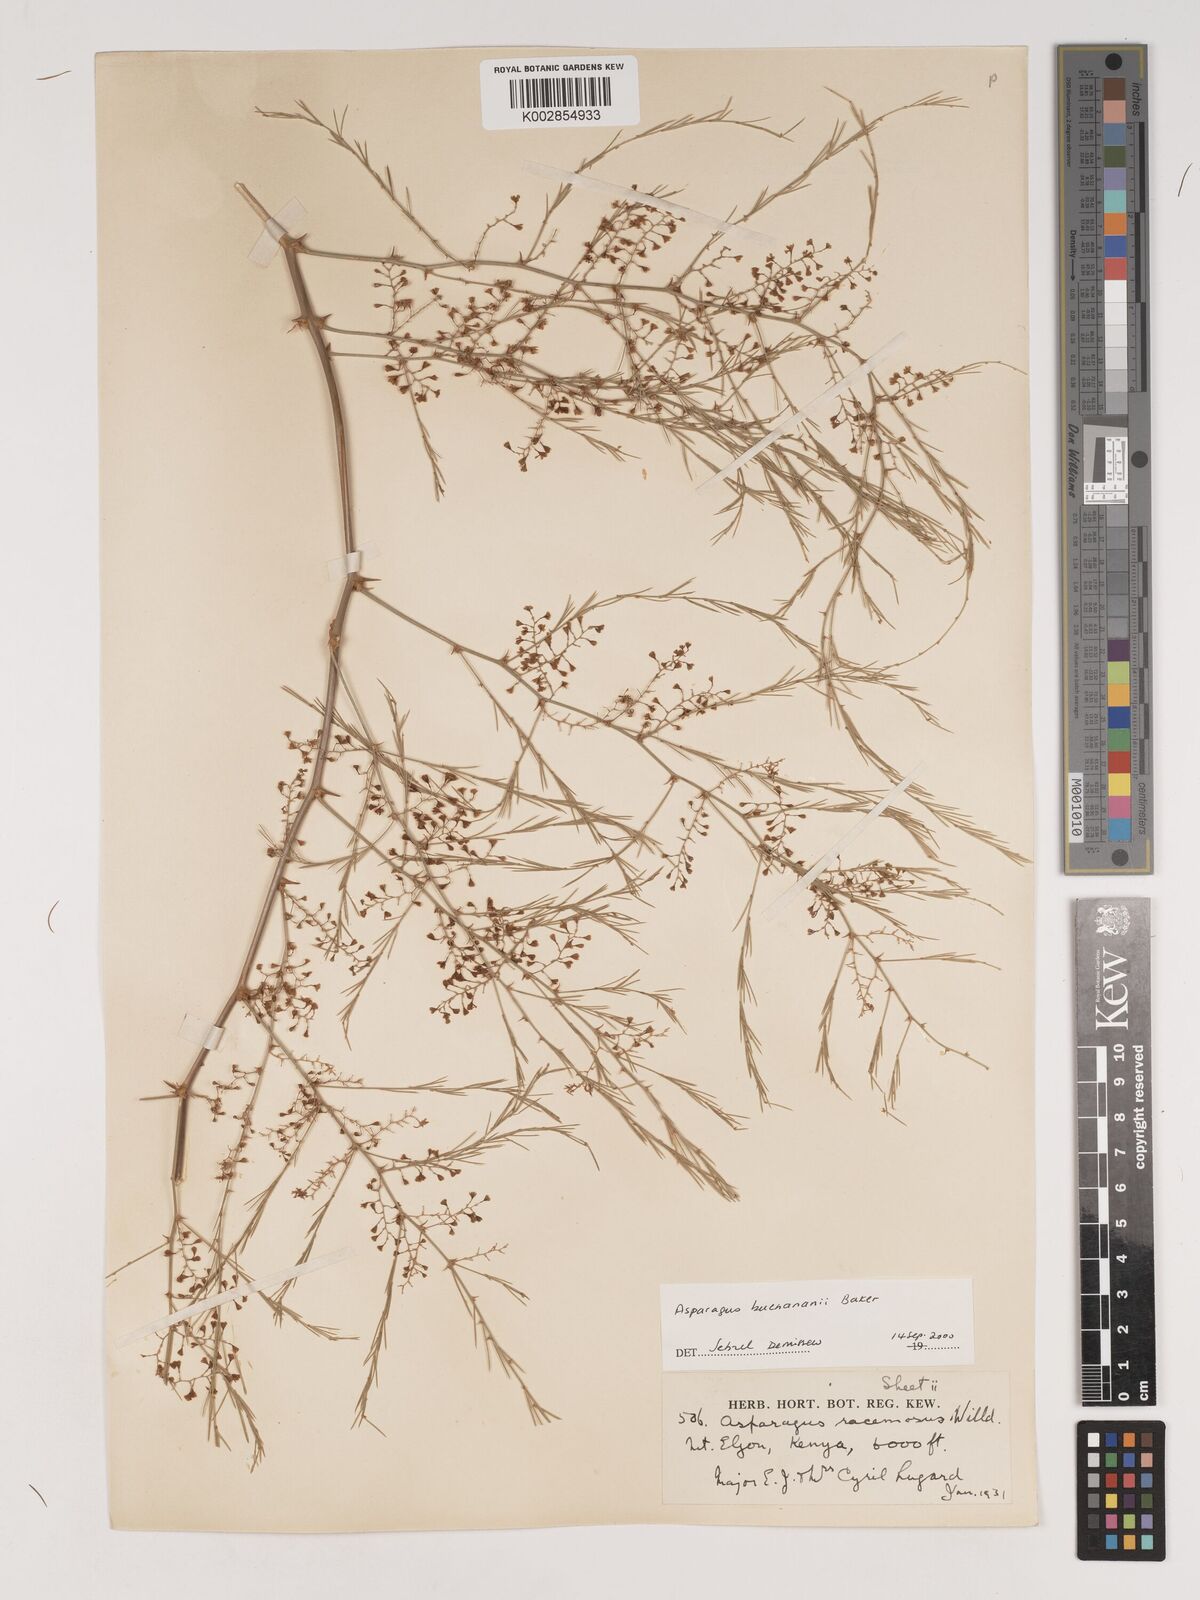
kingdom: Plantae
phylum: Tracheophyta
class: Liliopsida
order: Asparagales
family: Asparagaceae
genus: Asparagus
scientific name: Asparagus buchananii
